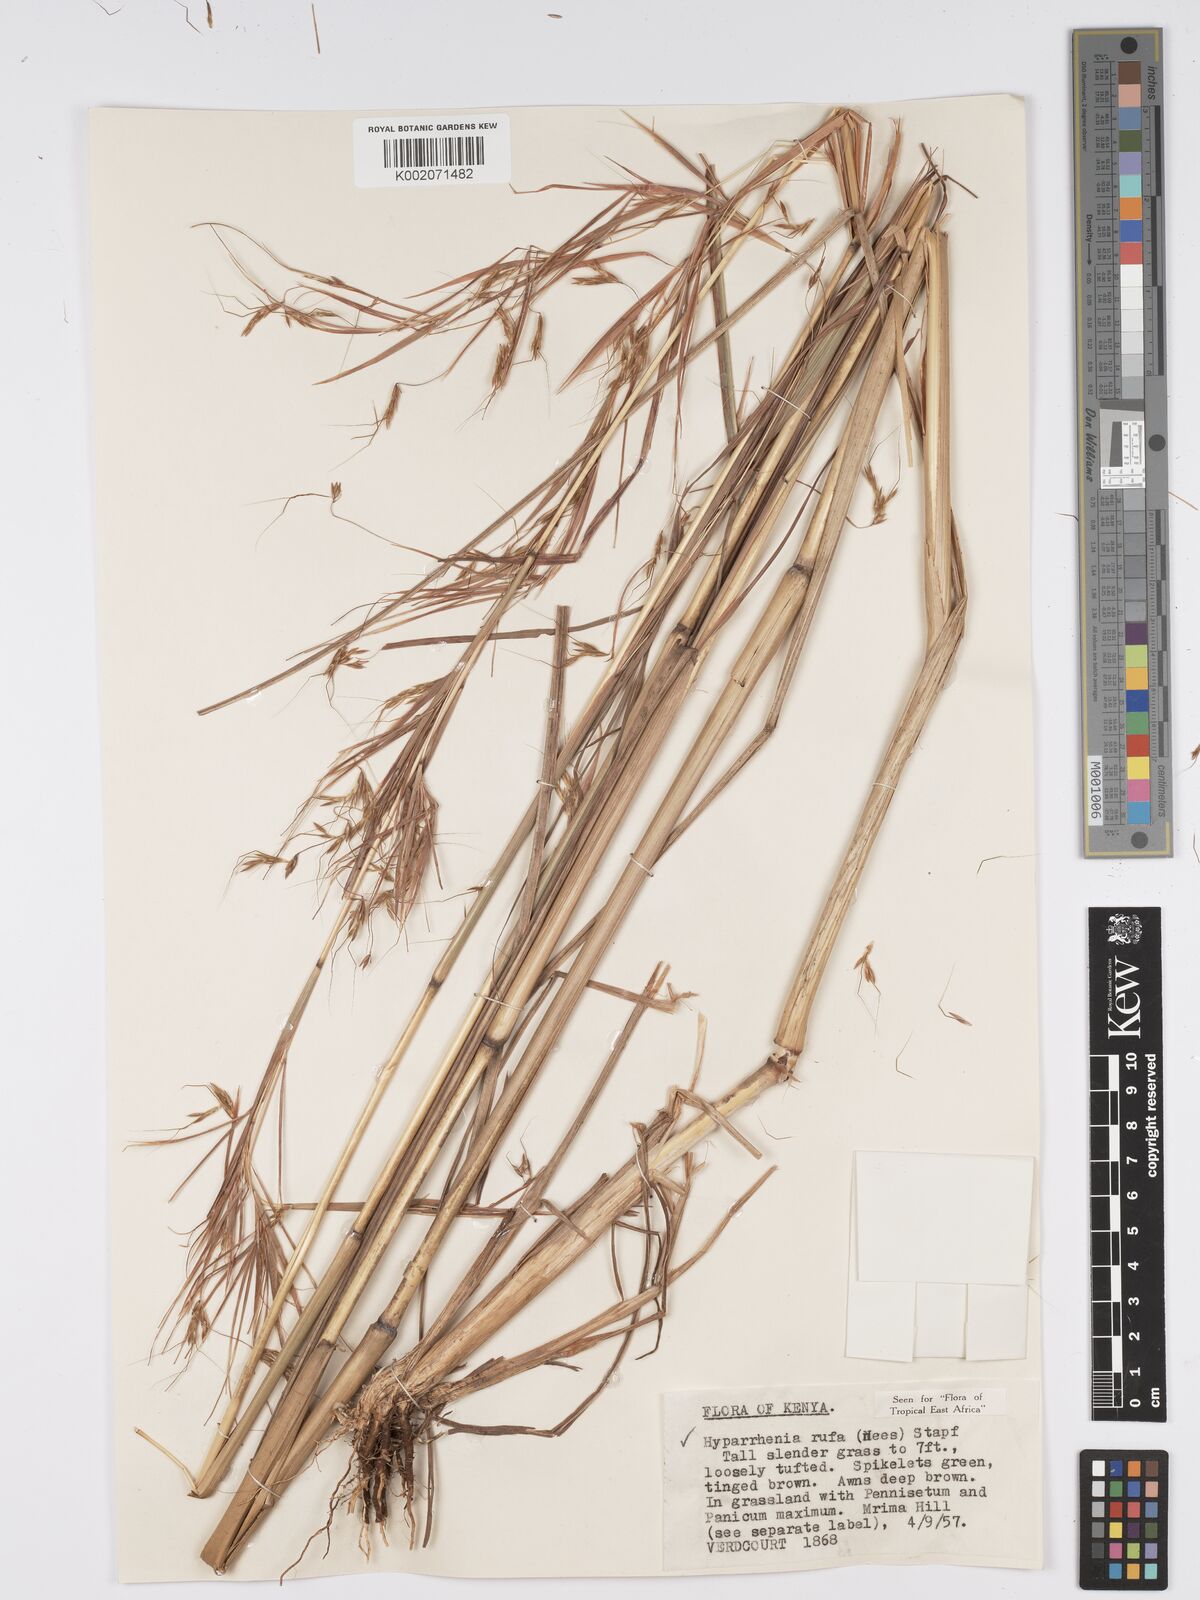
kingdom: Plantae
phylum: Tracheophyta
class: Liliopsida
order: Poales
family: Poaceae
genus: Hyparrhenia
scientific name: Hyparrhenia rufa
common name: Jaraguagrass
